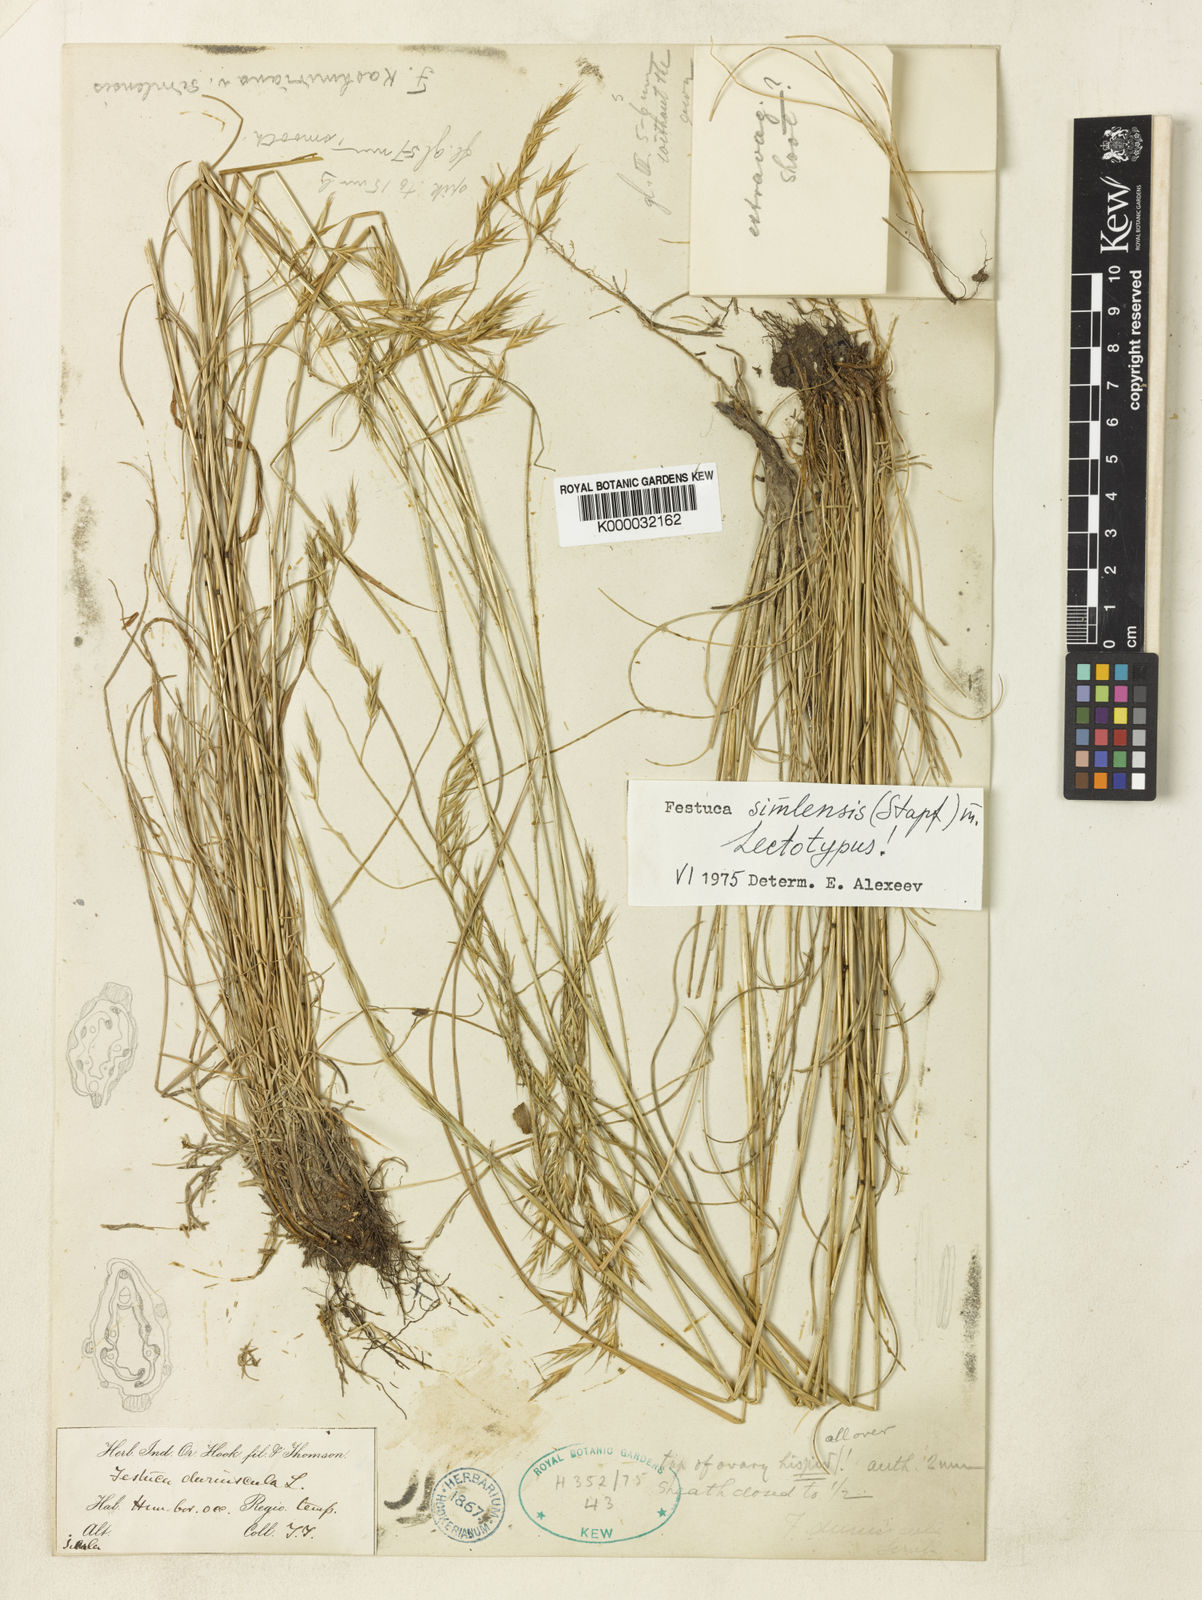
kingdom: Plantae
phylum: Tracheophyta
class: Liliopsida
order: Poales
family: Poaceae
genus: Festuca
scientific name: Festuca simlensis
